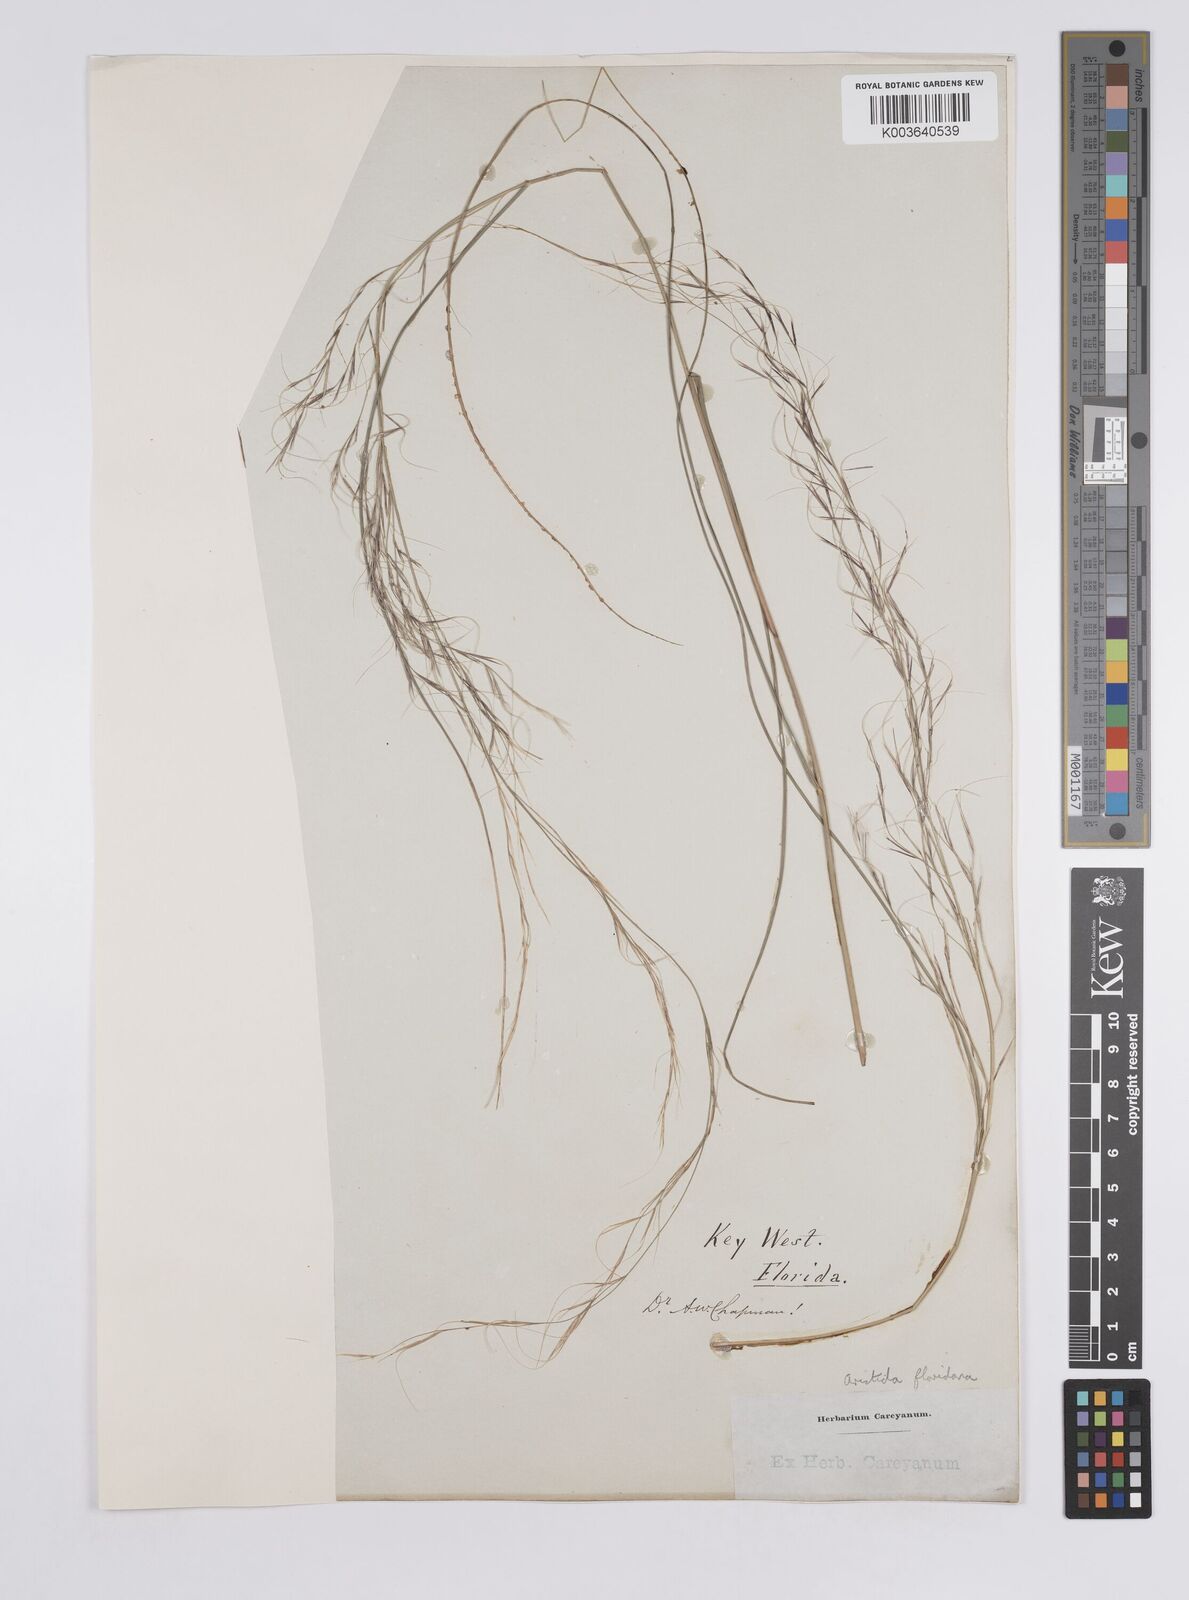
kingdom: Plantae
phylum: Tracheophyta
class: Liliopsida
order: Poales
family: Poaceae
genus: Aristida
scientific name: Aristida floridana
